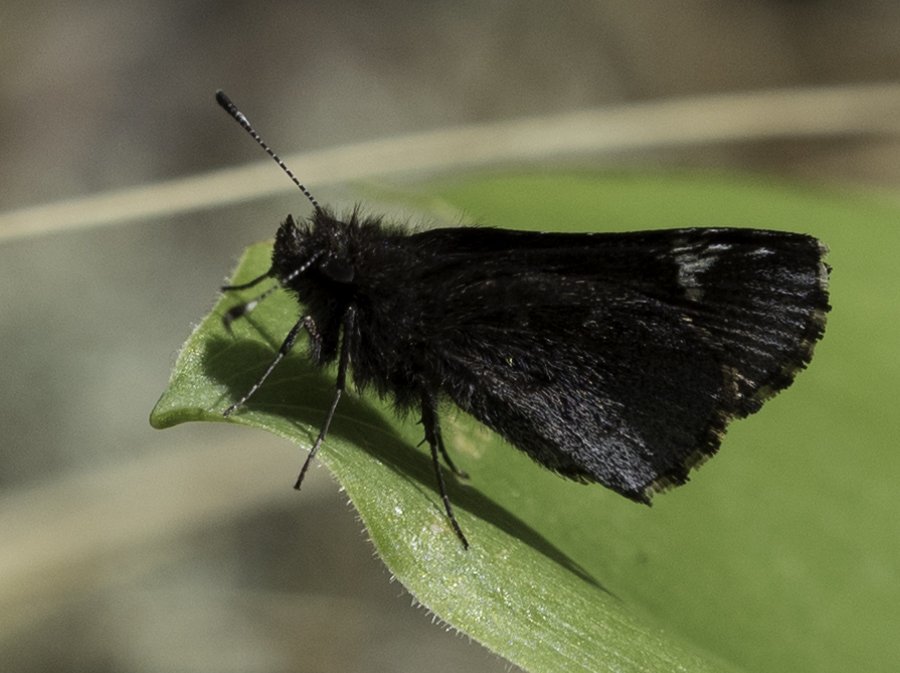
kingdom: Animalia
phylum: Arthropoda
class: Insecta
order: Lepidoptera
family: Hesperiidae
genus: Mastor
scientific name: Mastor vialis
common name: Common Roadside-Skipper
